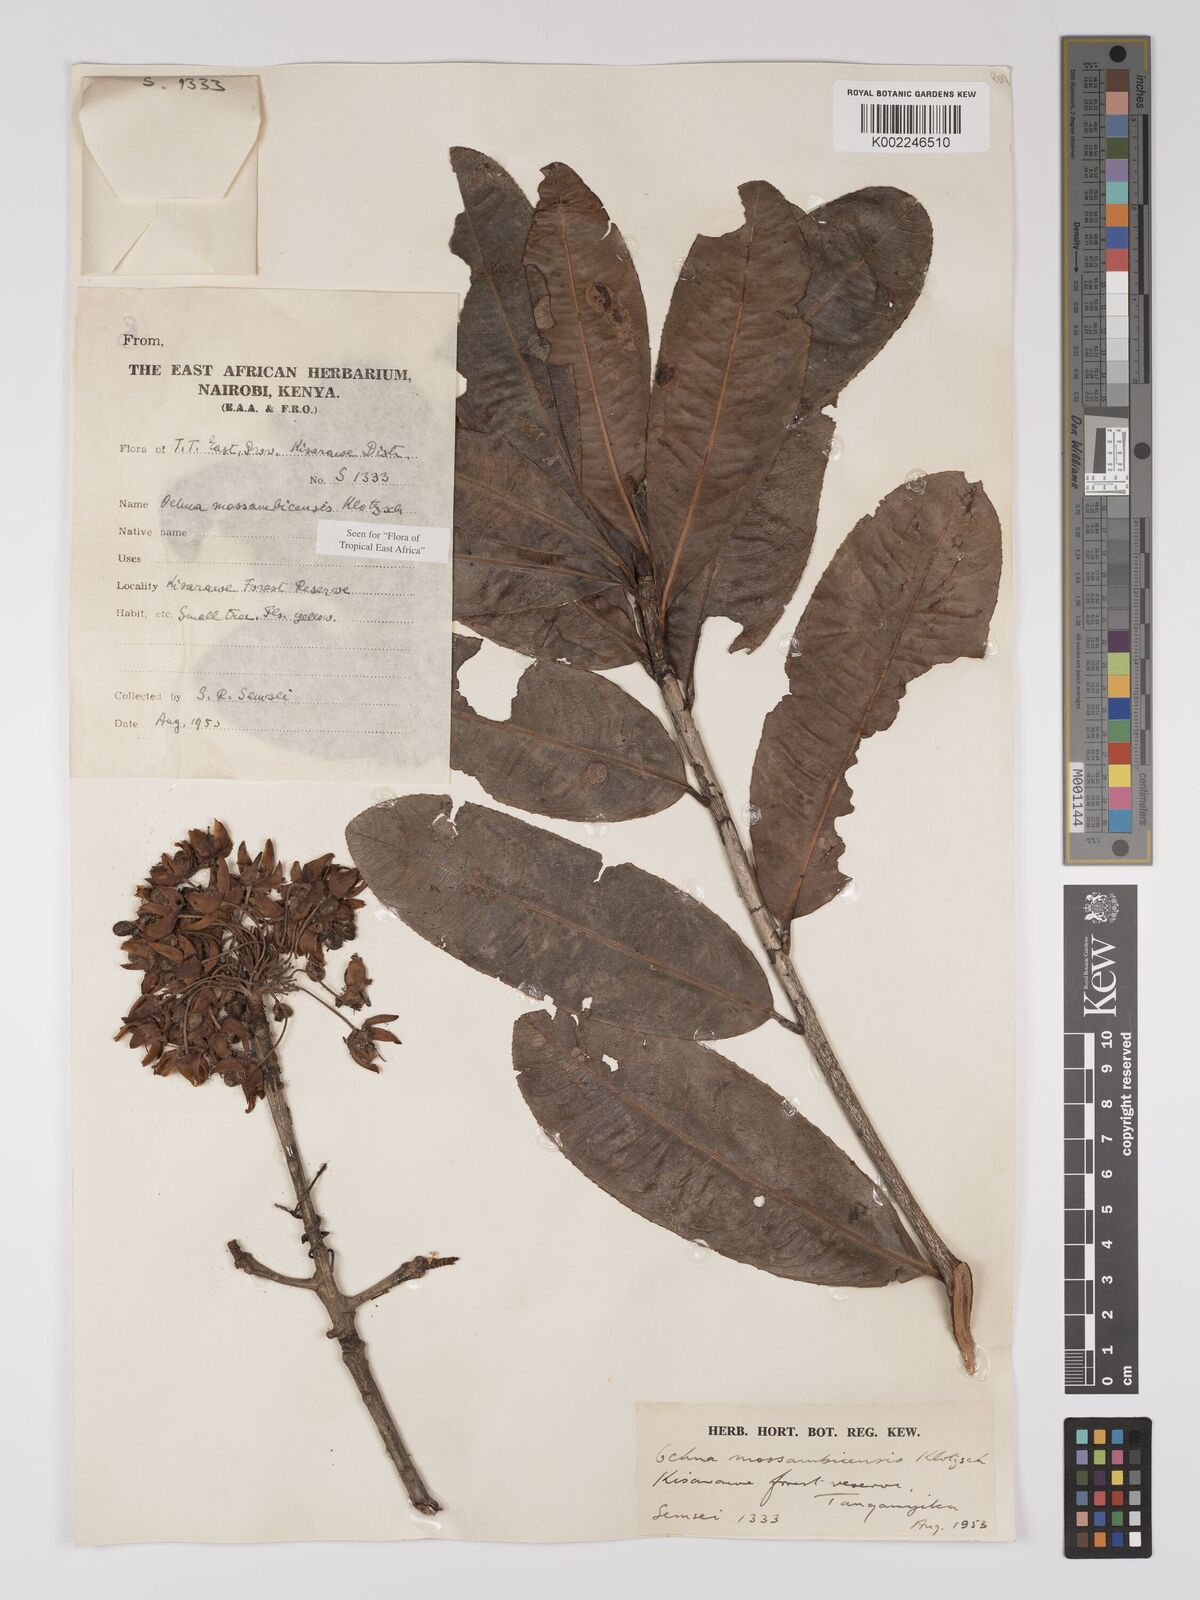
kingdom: Plantae
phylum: Tracheophyta
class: Magnoliopsida
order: Malpighiales
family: Ochnaceae
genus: Ochna
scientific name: Ochna atropurpurea
